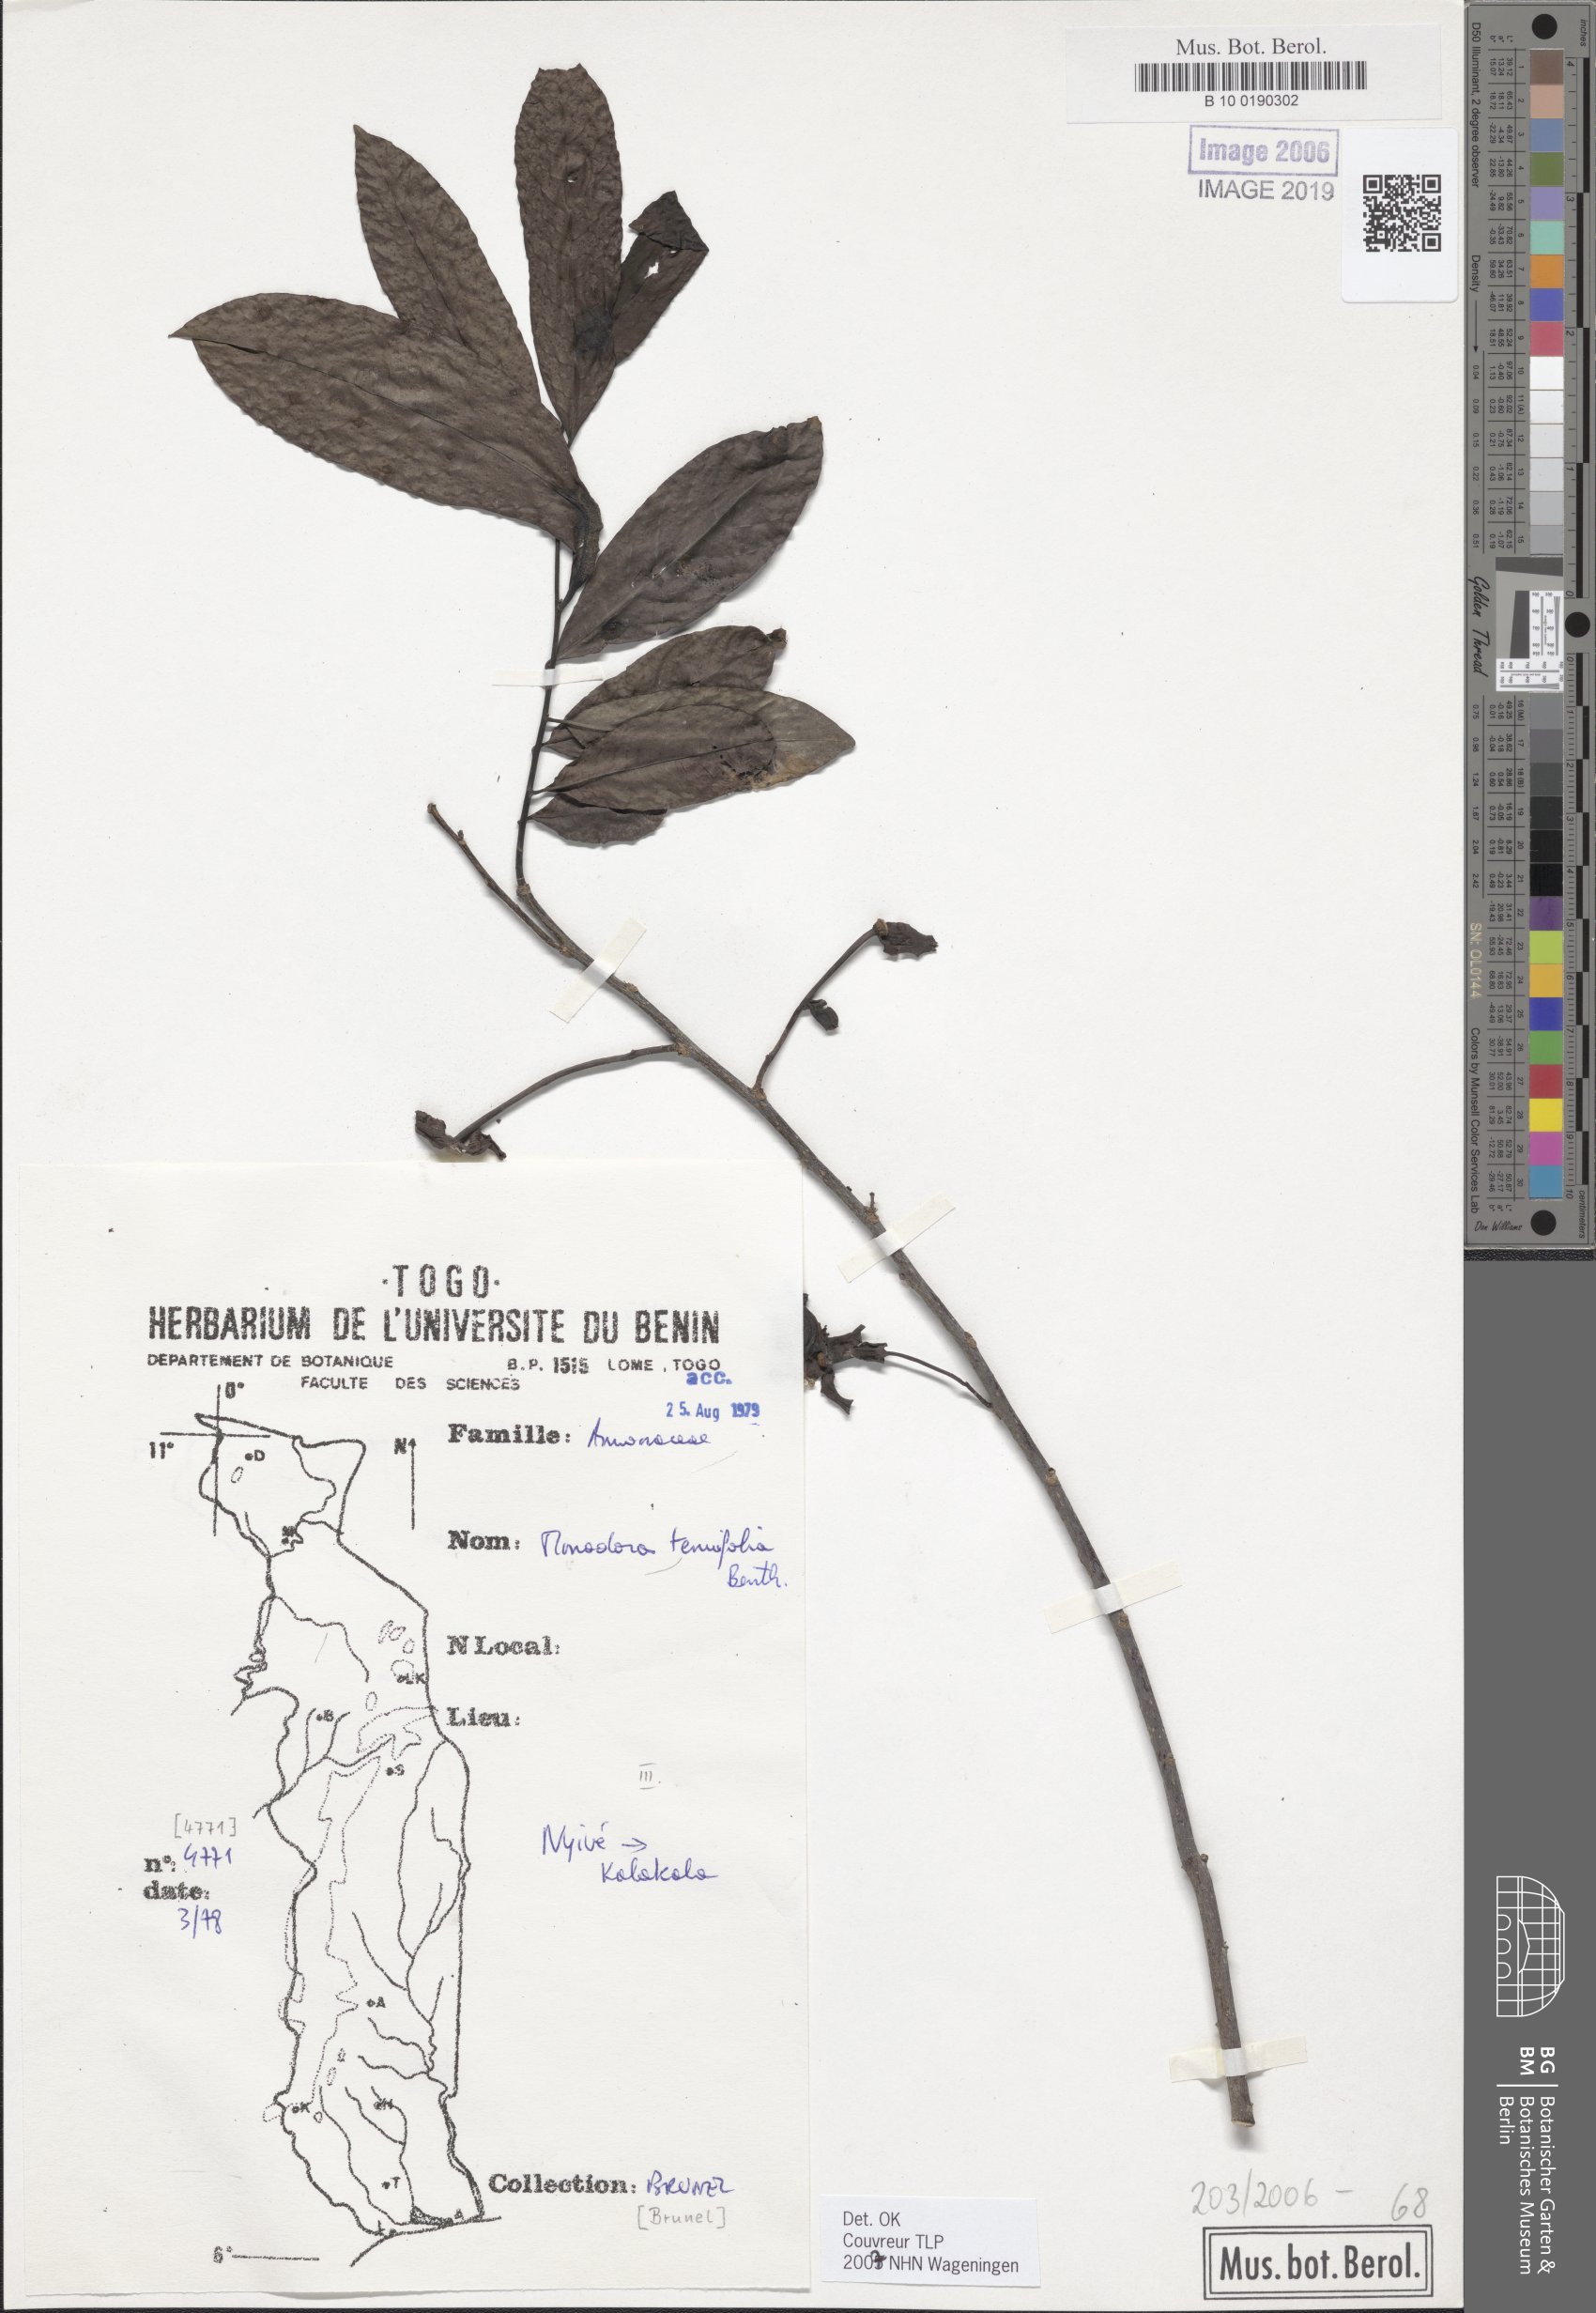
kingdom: Plantae
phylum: Tracheophyta
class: Magnoliopsida
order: Magnoliales
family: Annonaceae
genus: Monodora
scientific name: Monodora tenuifolia
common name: Orchidtree
